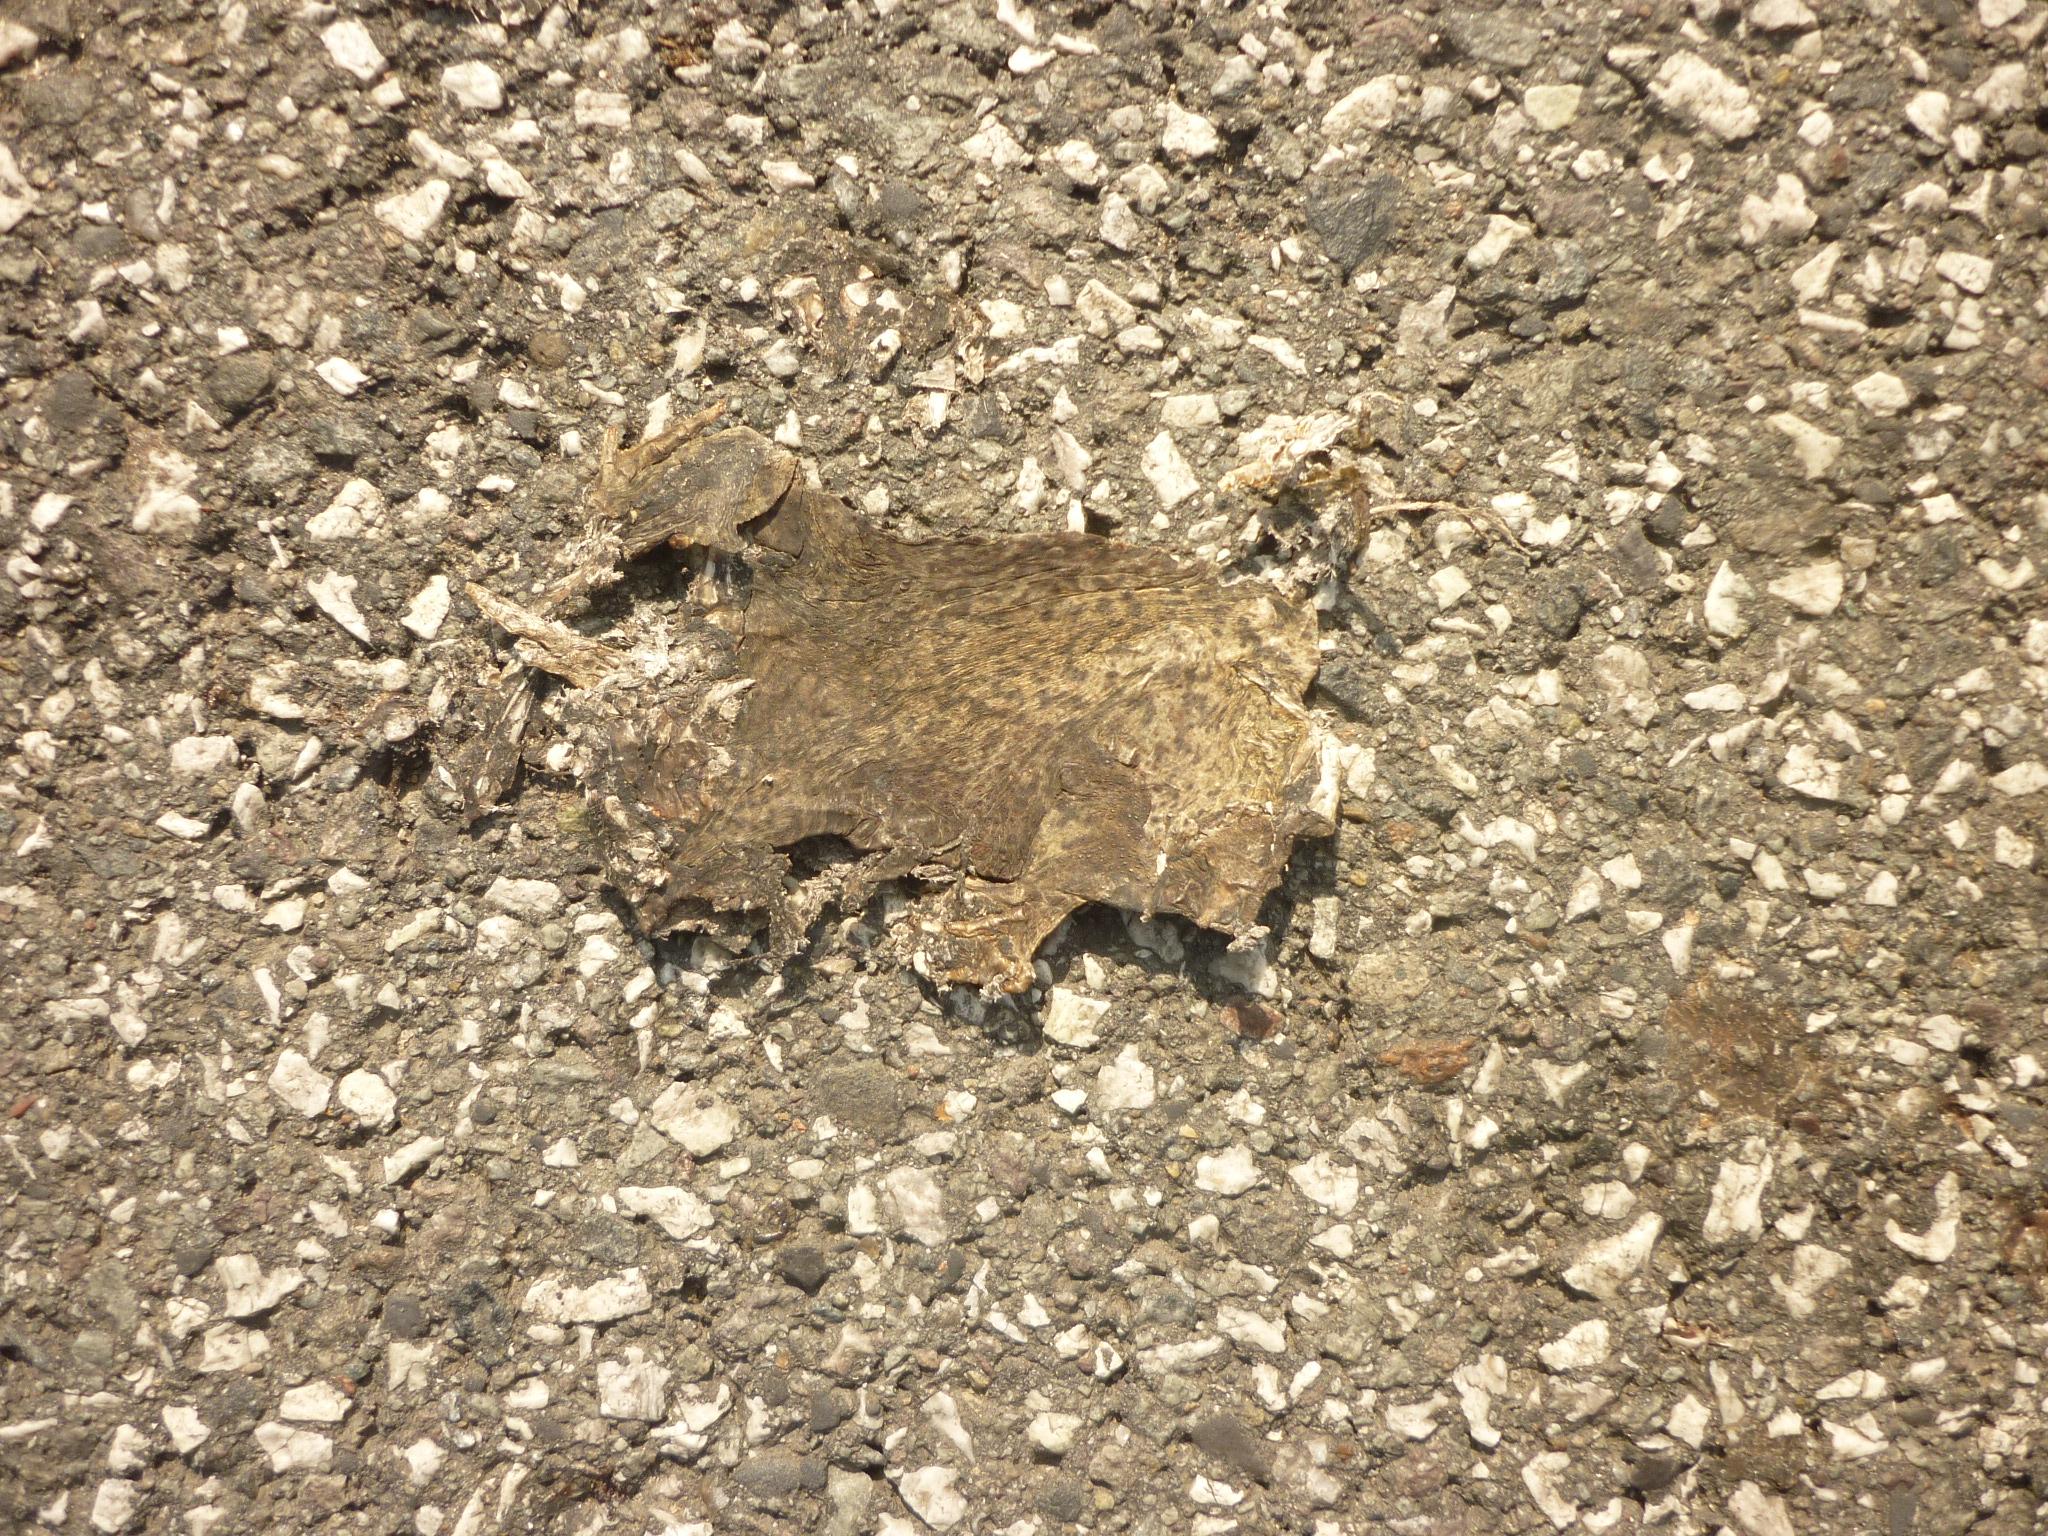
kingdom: Animalia
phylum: Chordata
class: Amphibia
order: Anura
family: Bufonidae
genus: Bufo
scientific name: Bufo bufo
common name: Common toad
